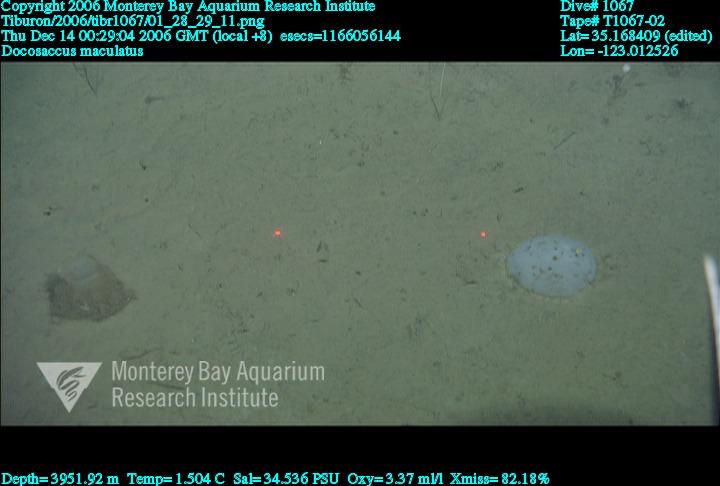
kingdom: Animalia
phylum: Porifera
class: Hexactinellida
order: Lyssacinosida
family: Euplectellidae
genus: Docosaccus
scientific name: Docosaccus maculatus
